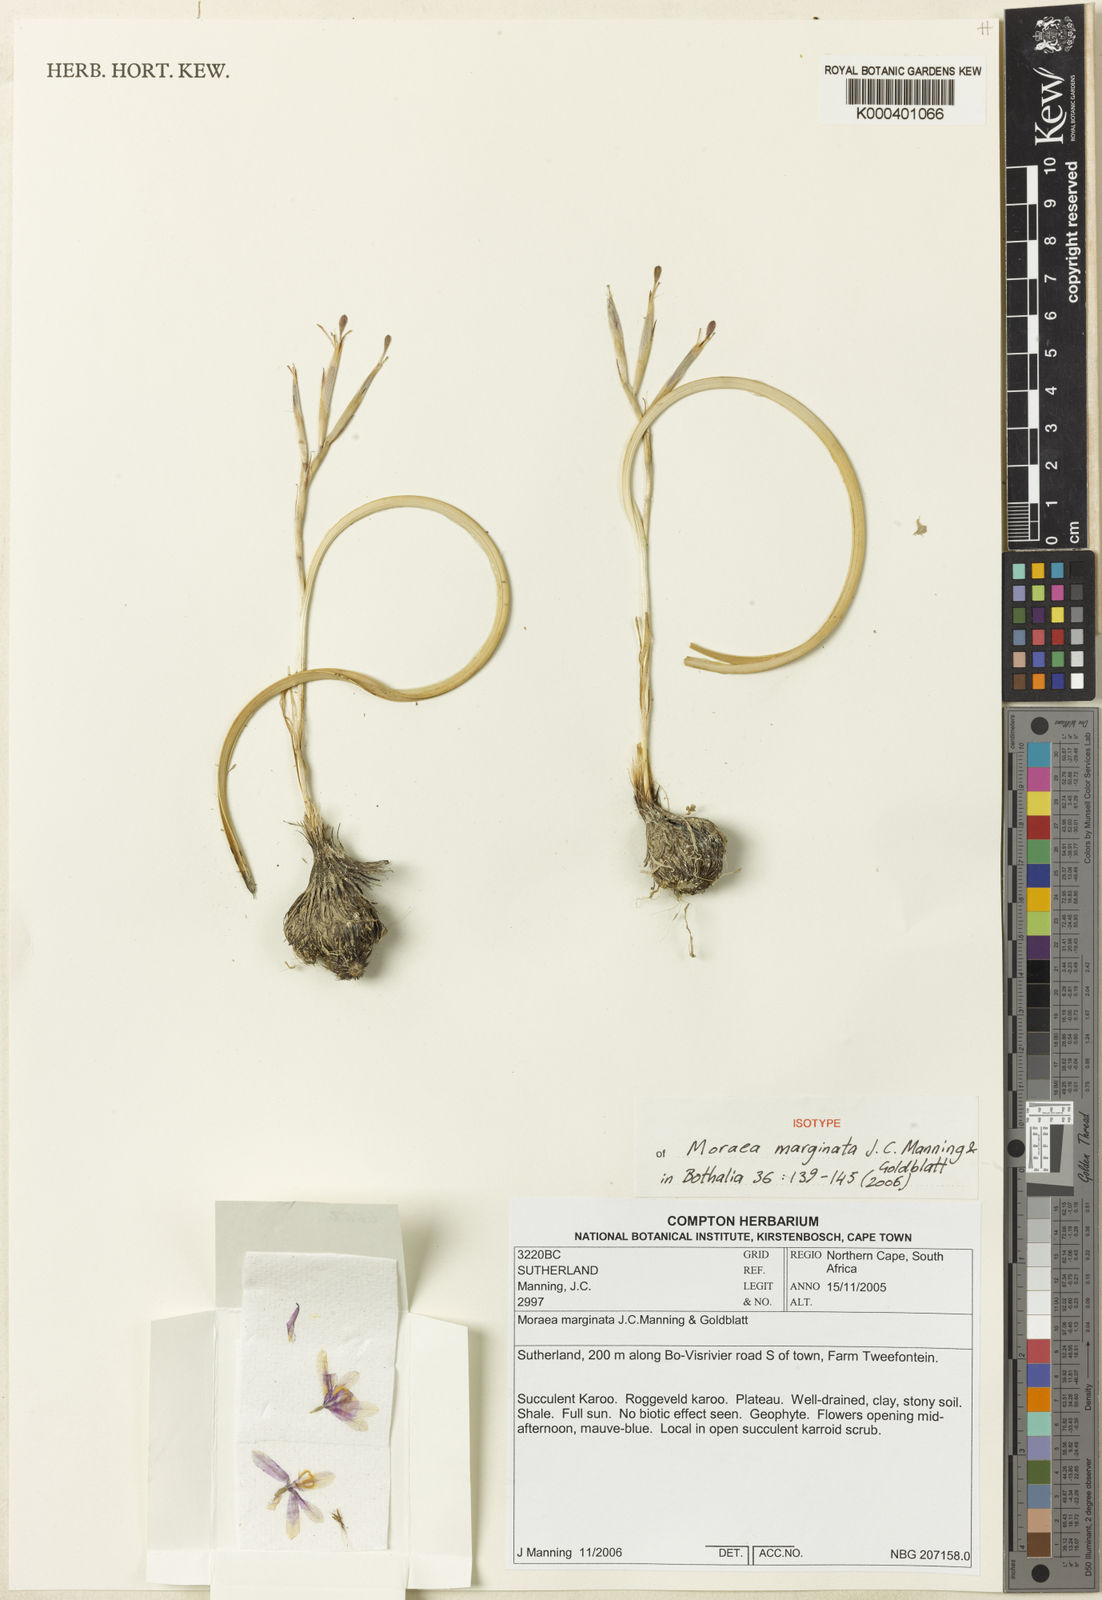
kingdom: Plantae
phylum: Tracheophyta
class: Liliopsida
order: Asparagales
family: Iridaceae
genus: Moraea
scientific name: Moraea marginata
